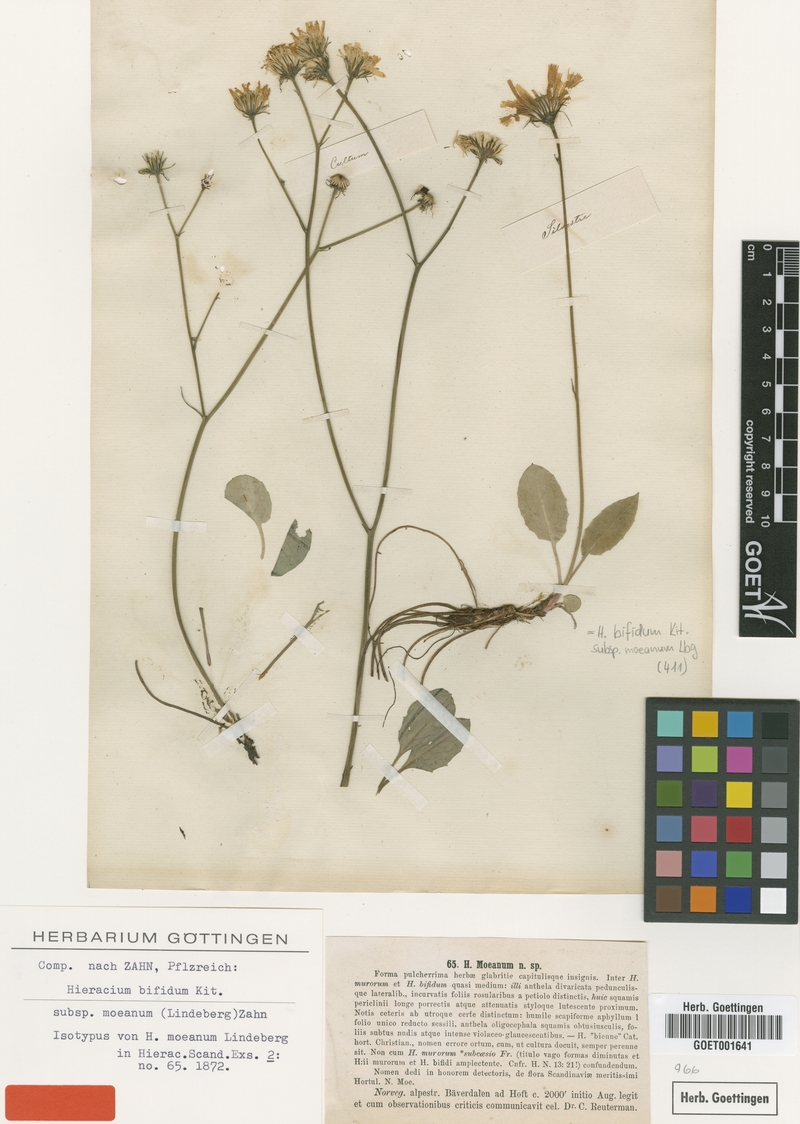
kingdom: Plantae
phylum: Tracheophyta
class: Magnoliopsida
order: Asterales
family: Asteraceae
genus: Hieracium
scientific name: Hieracium moeanum
